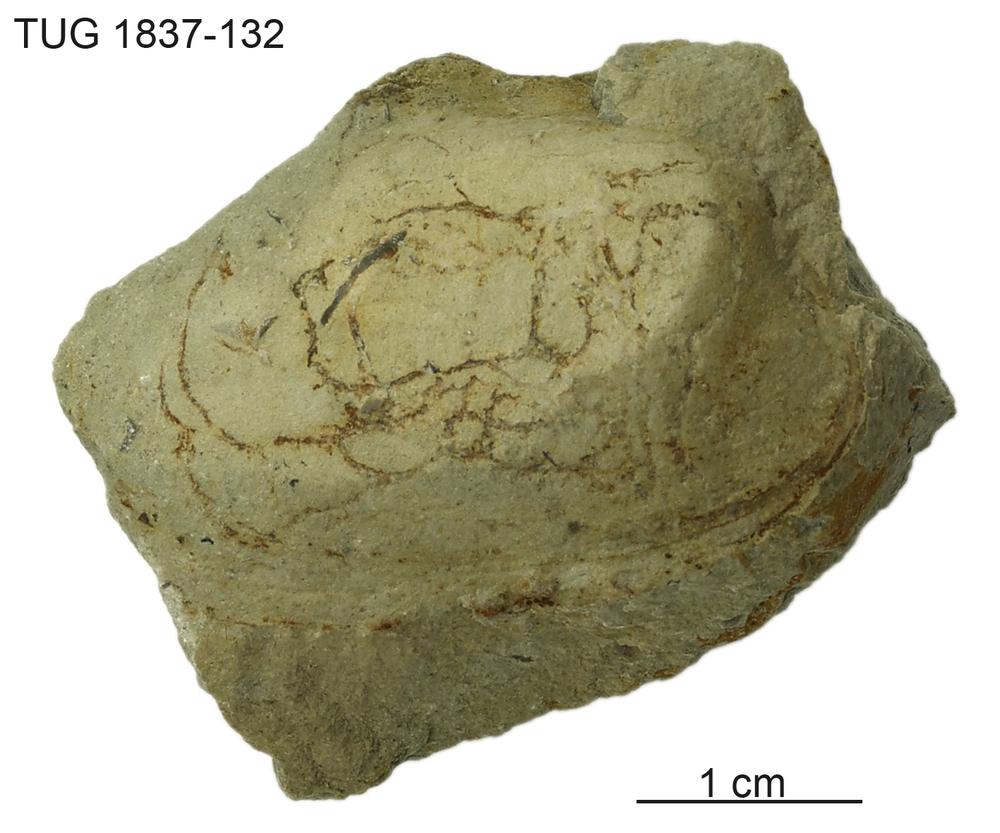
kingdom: Animalia
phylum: Mollusca
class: Bivalvia
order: Modiomorphida
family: Modiomorphidae
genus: Aristerella
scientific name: Aristerella
